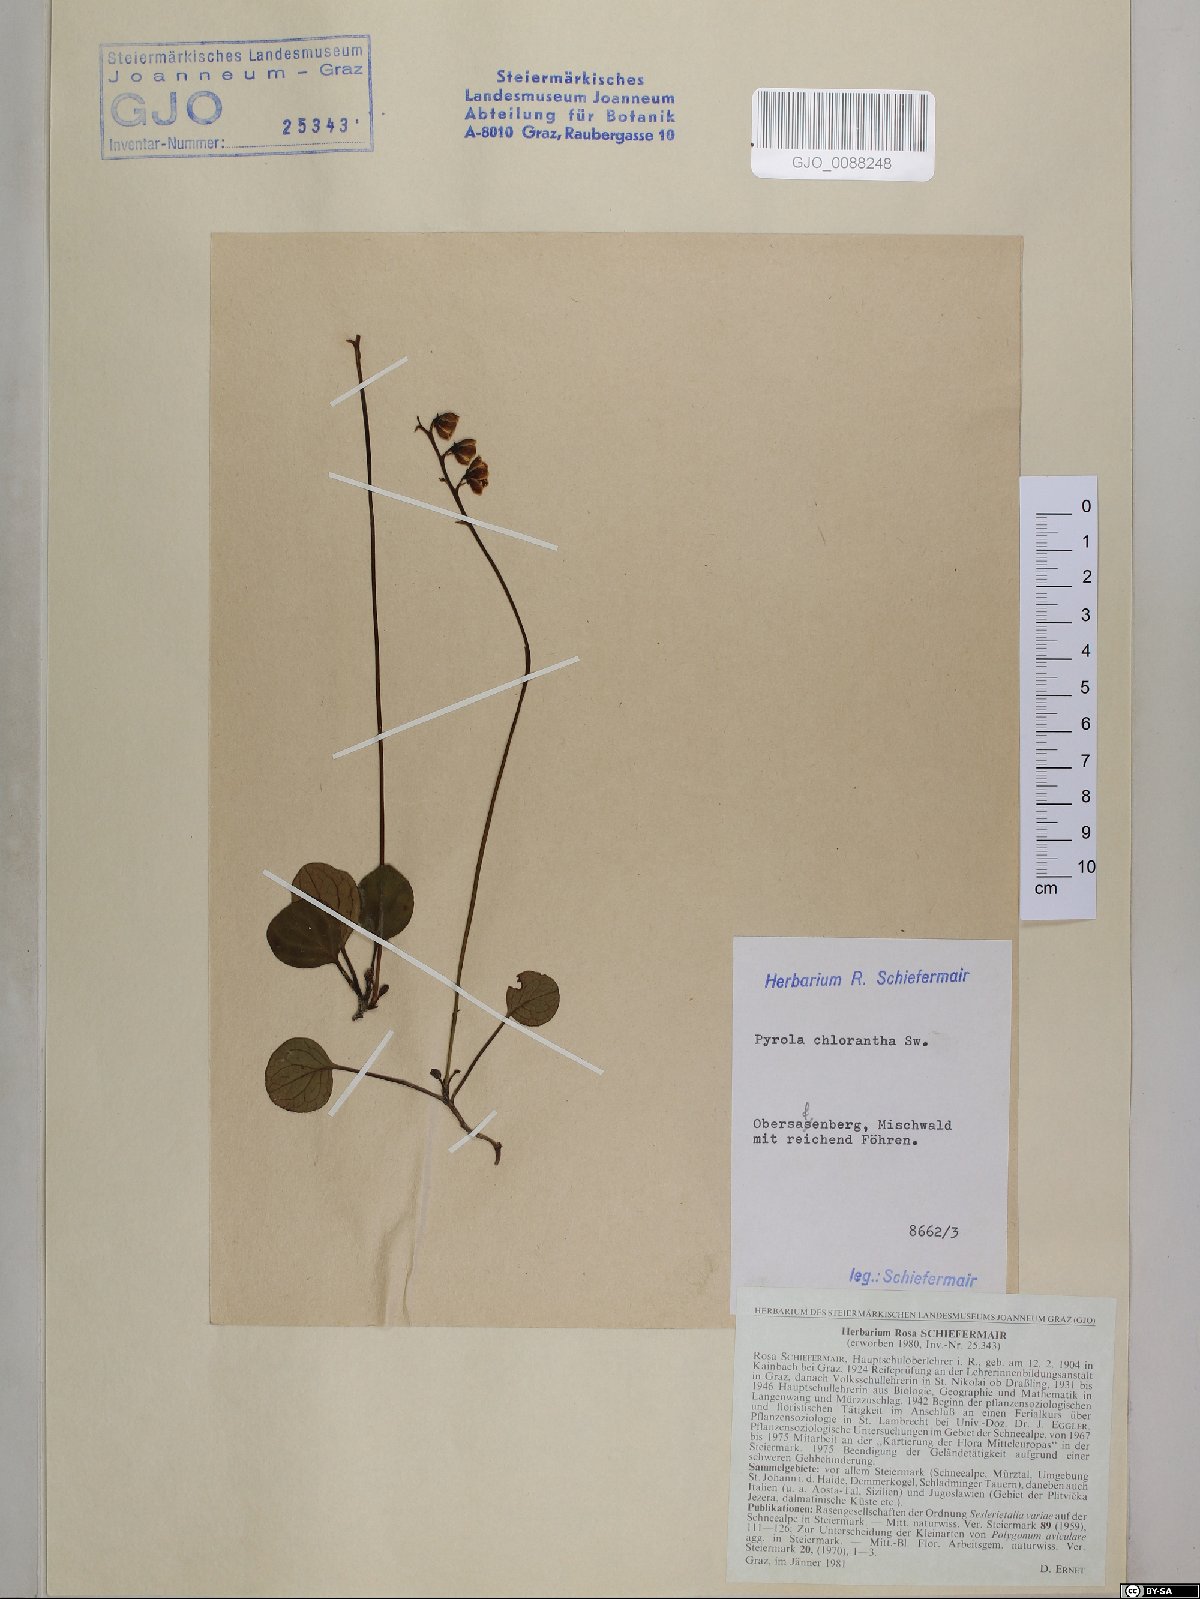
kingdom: Plantae
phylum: Tracheophyta
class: Magnoliopsida
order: Ericales
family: Ericaceae
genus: Pyrola
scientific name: Pyrola chlorantha
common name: Green wintergreen
